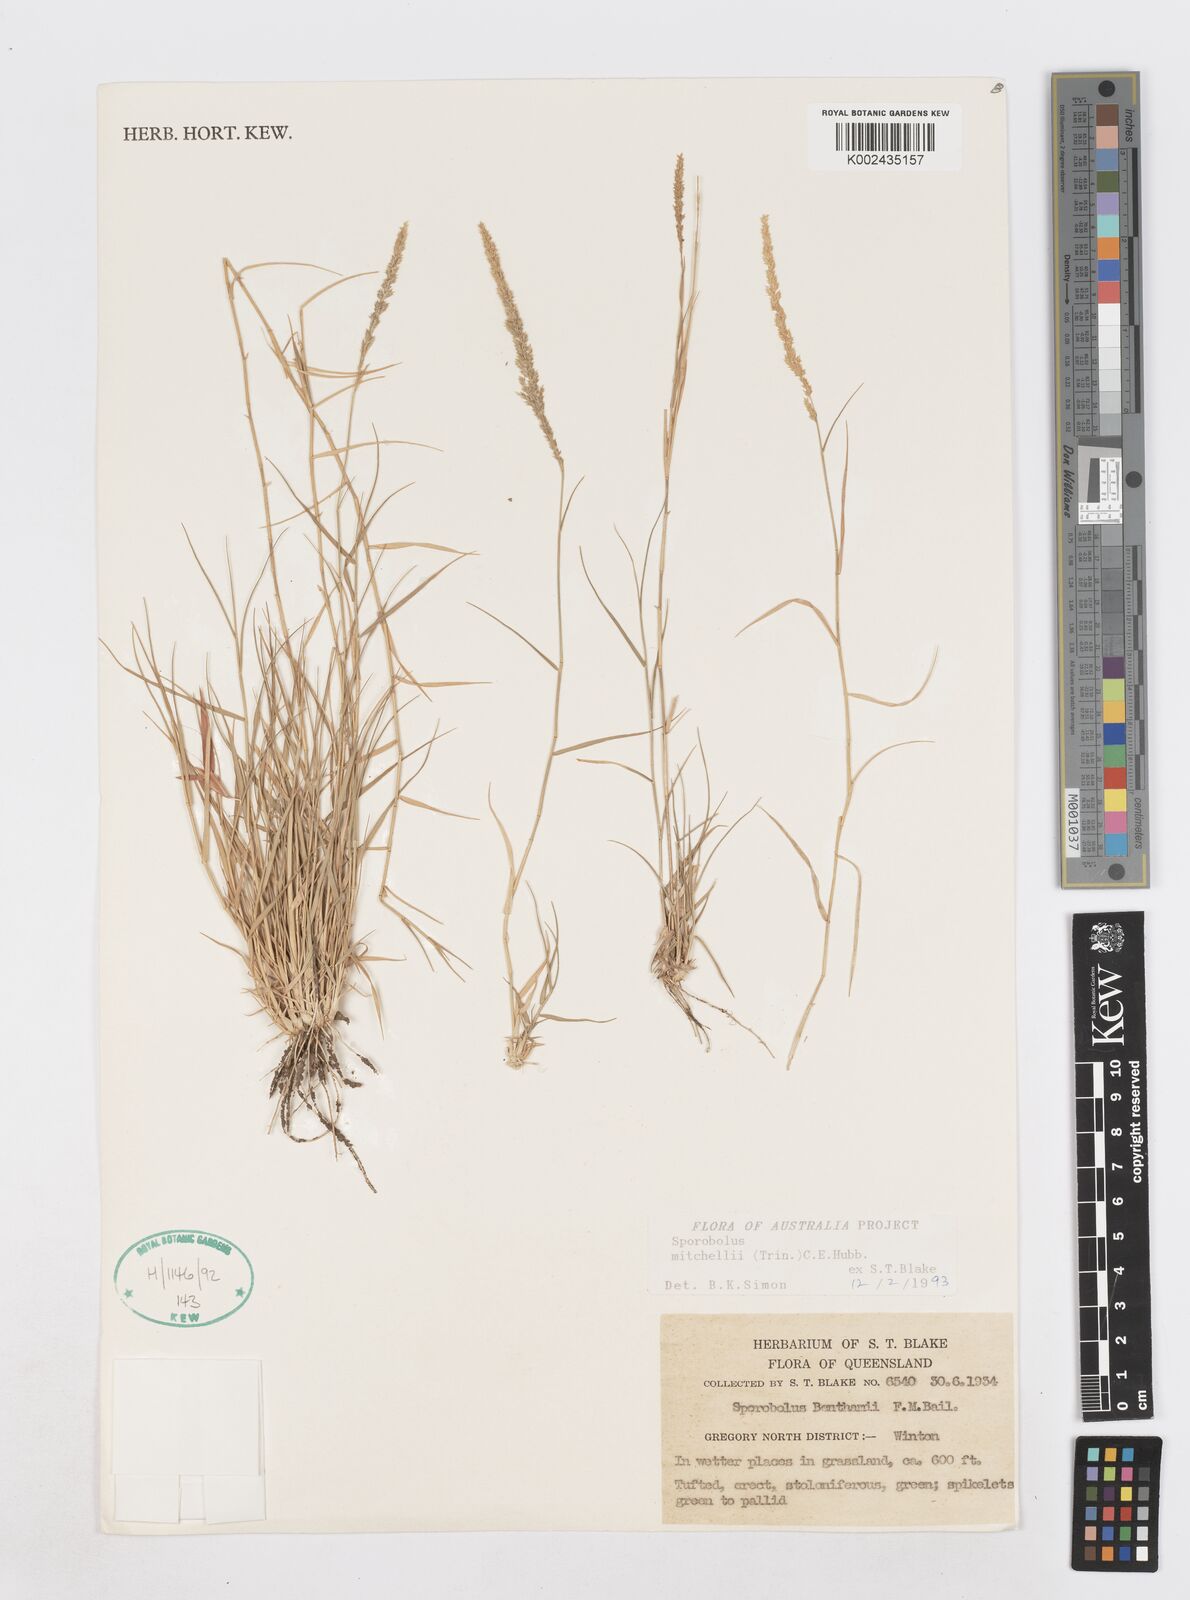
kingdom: Plantae
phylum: Tracheophyta
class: Liliopsida
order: Poales
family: Poaceae
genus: Sporobolus
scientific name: Sporobolus mitchellii
